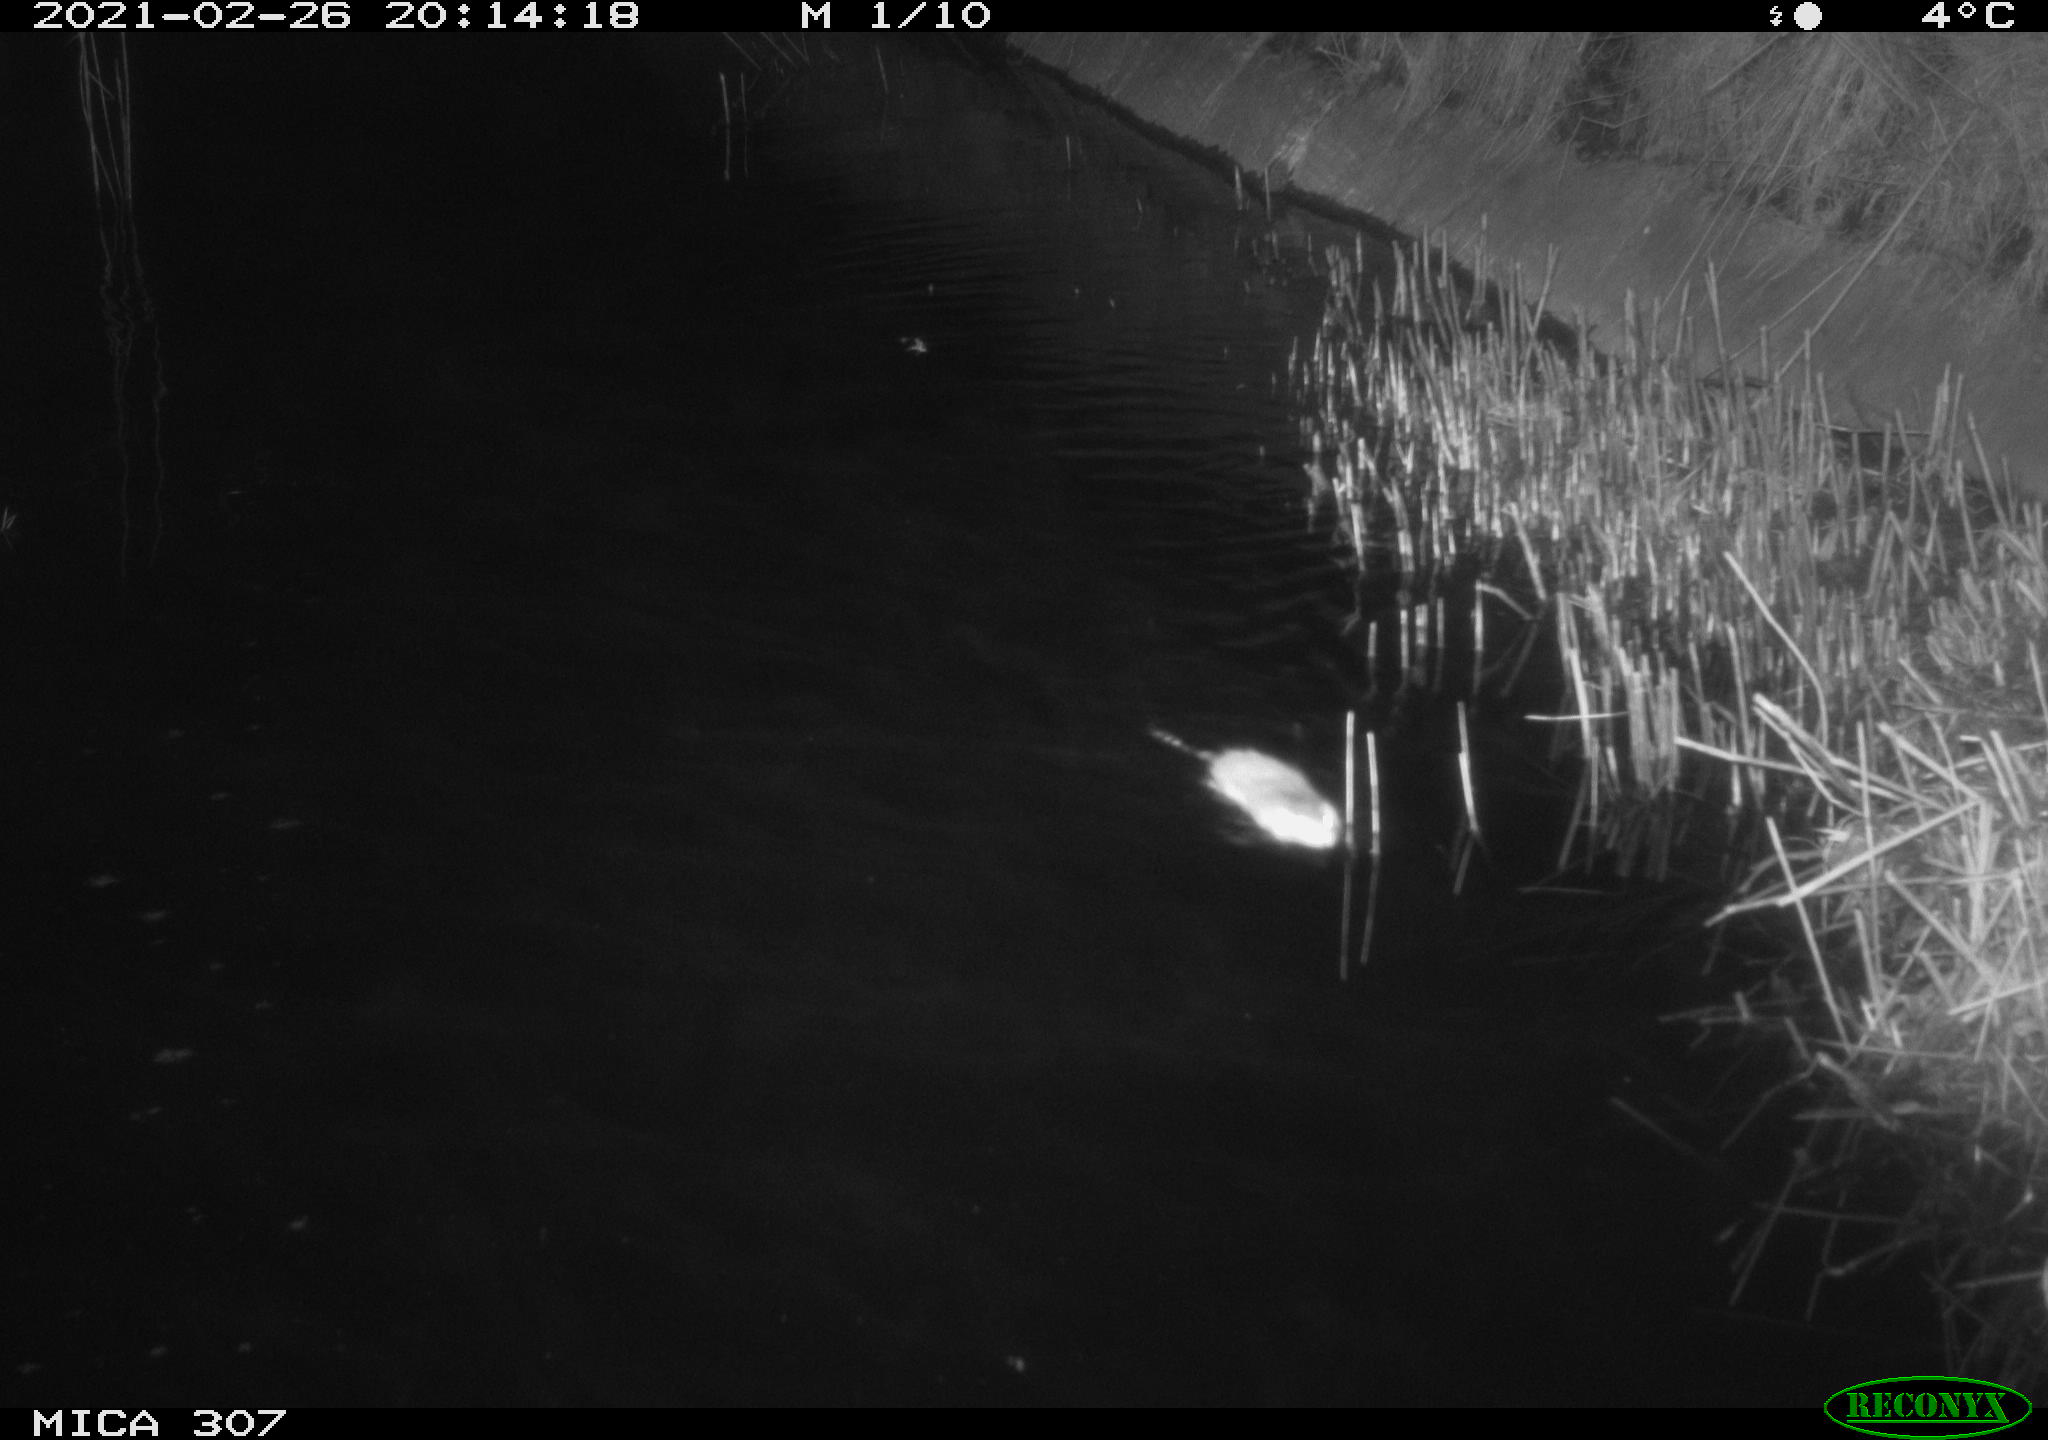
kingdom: Animalia
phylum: Chordata
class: Mammalia
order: Rodentia
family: Muridae
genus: Rattus
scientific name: Rattus norvegicus
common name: Brown rat
